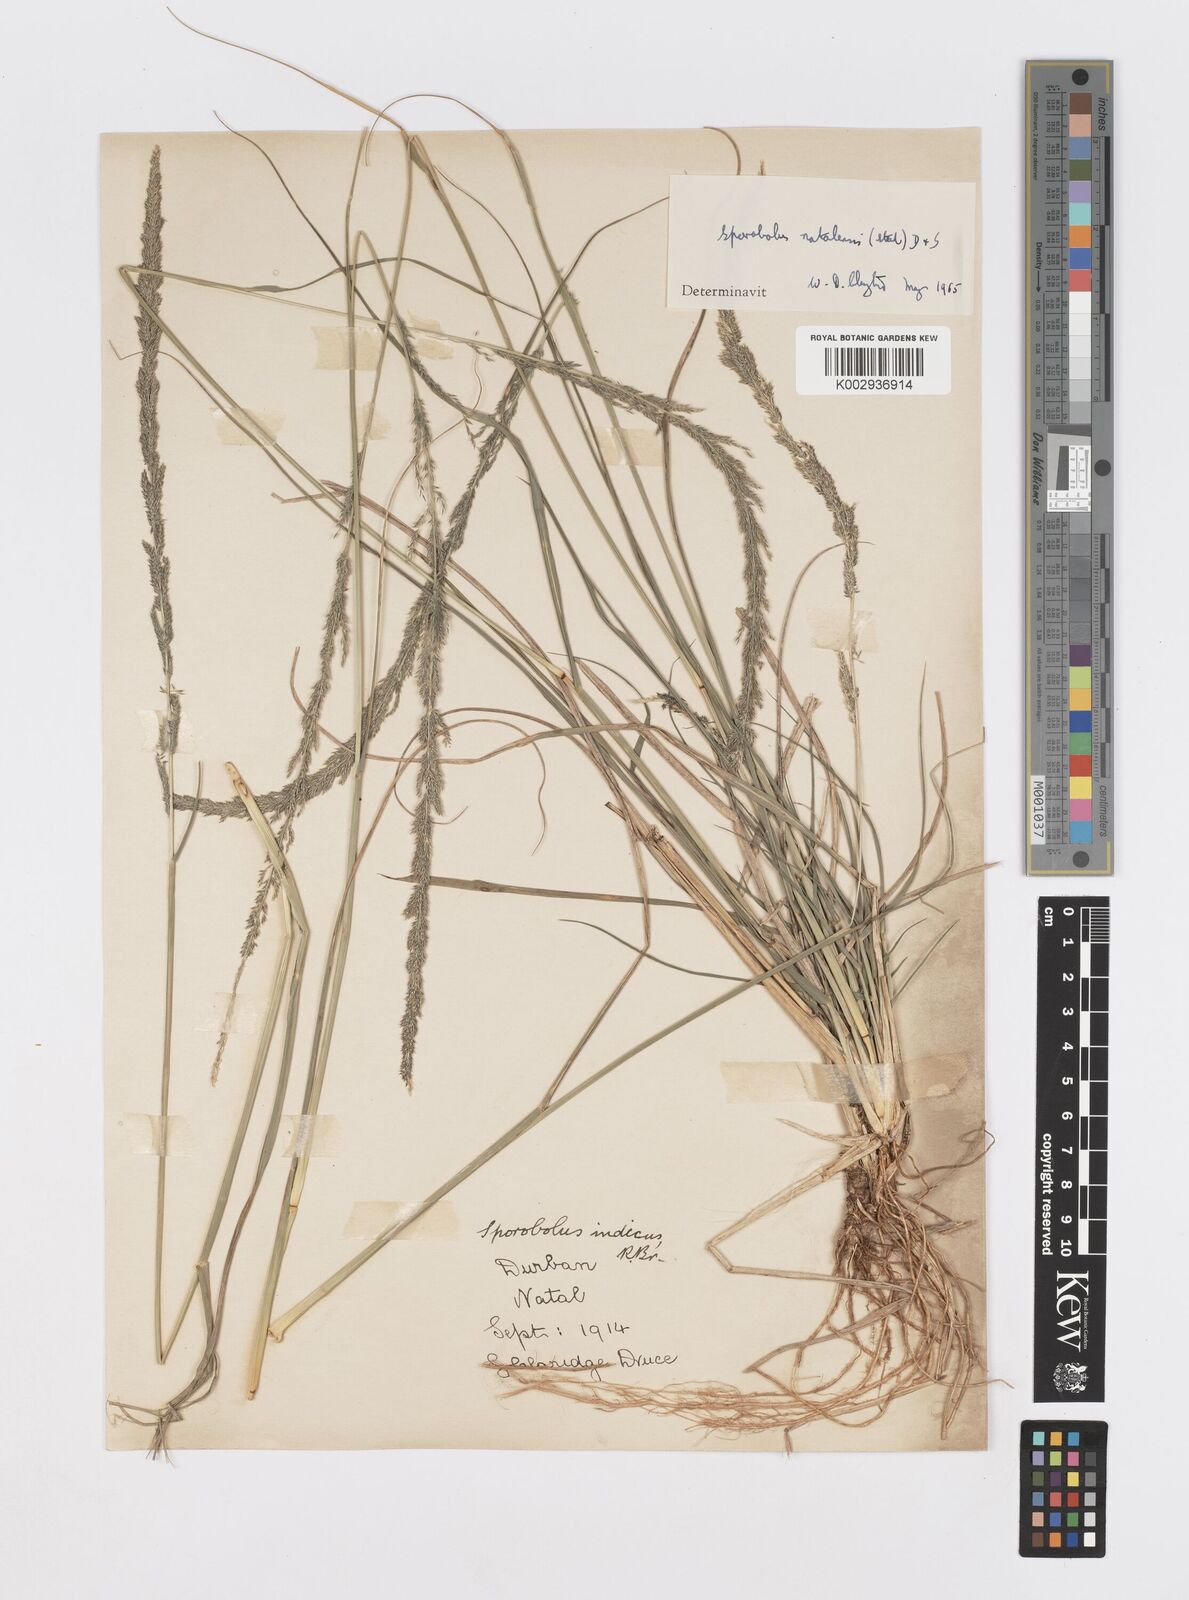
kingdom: Plantae
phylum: Tracheophyta
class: Liliopsida
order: Poales
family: Poaceae
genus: Sporobolus
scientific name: Sporobolus natalensis
